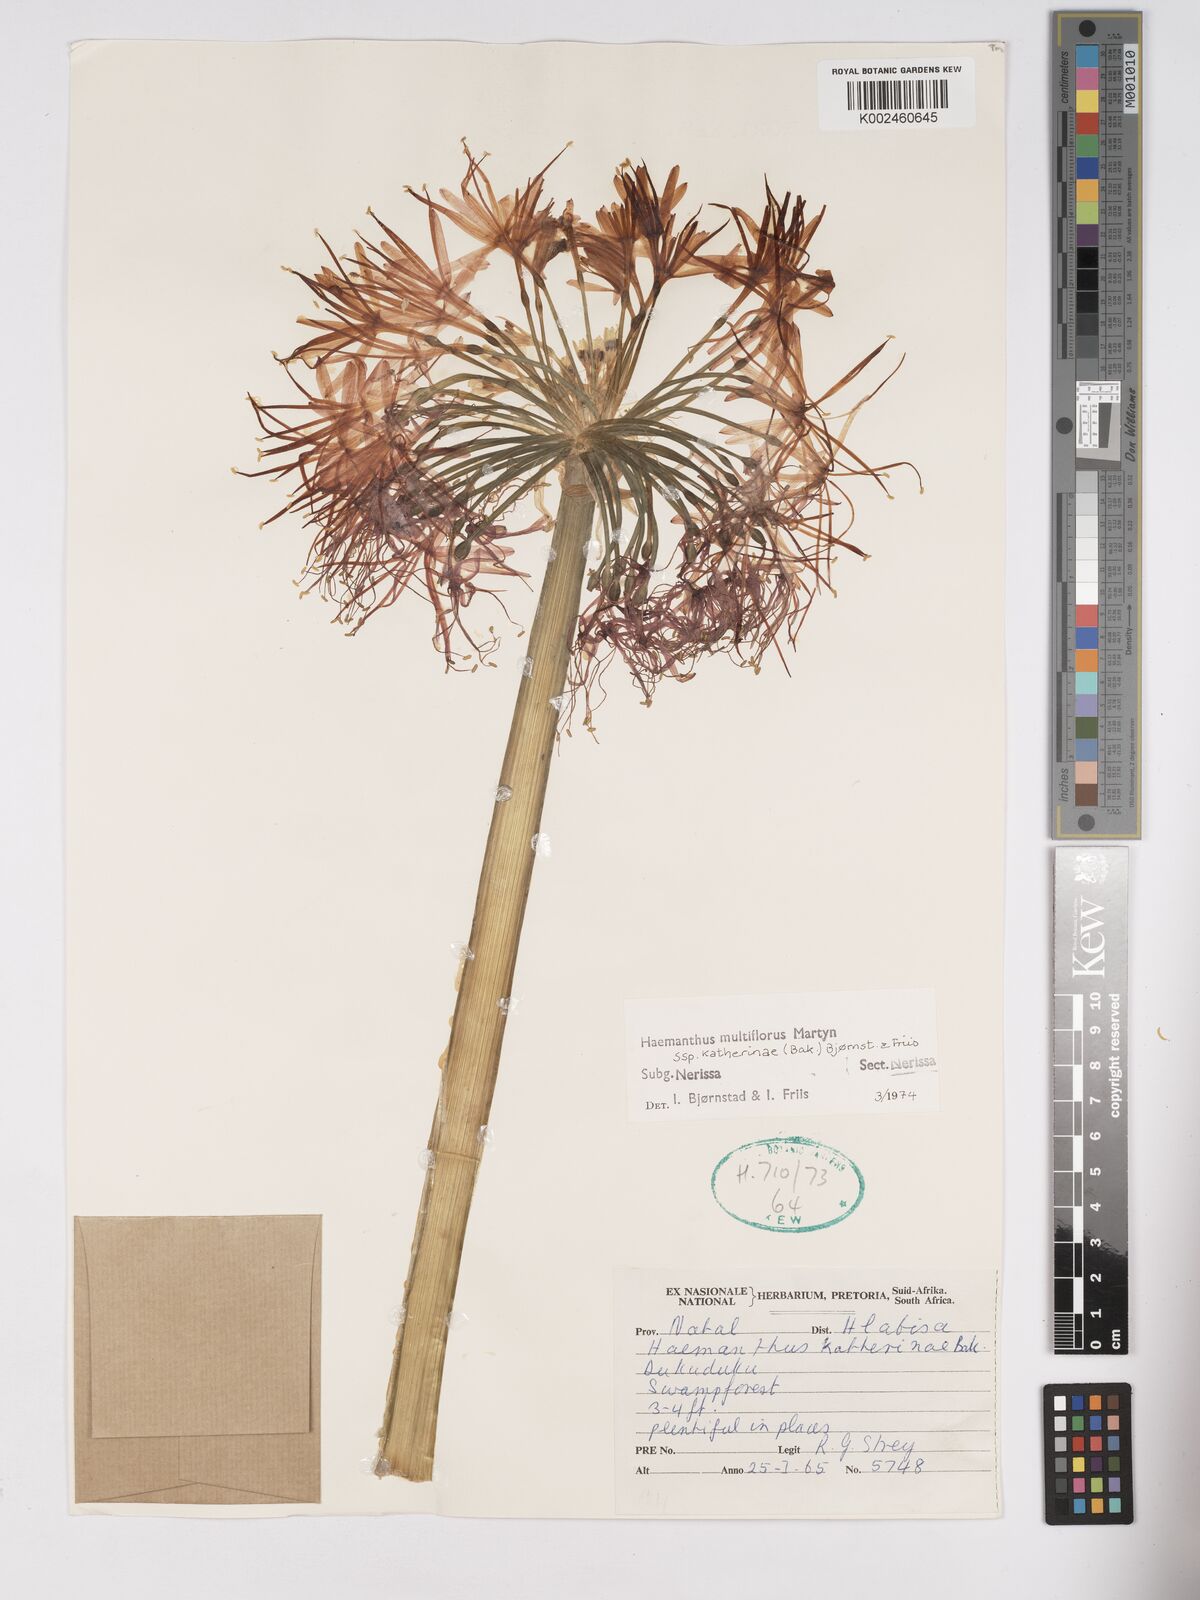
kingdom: Plantae
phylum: Tracheophyta
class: Liliopsida
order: Asparagales
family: Amaryllidaceae
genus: Scadoxus
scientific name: Scadoxus multiflorus
